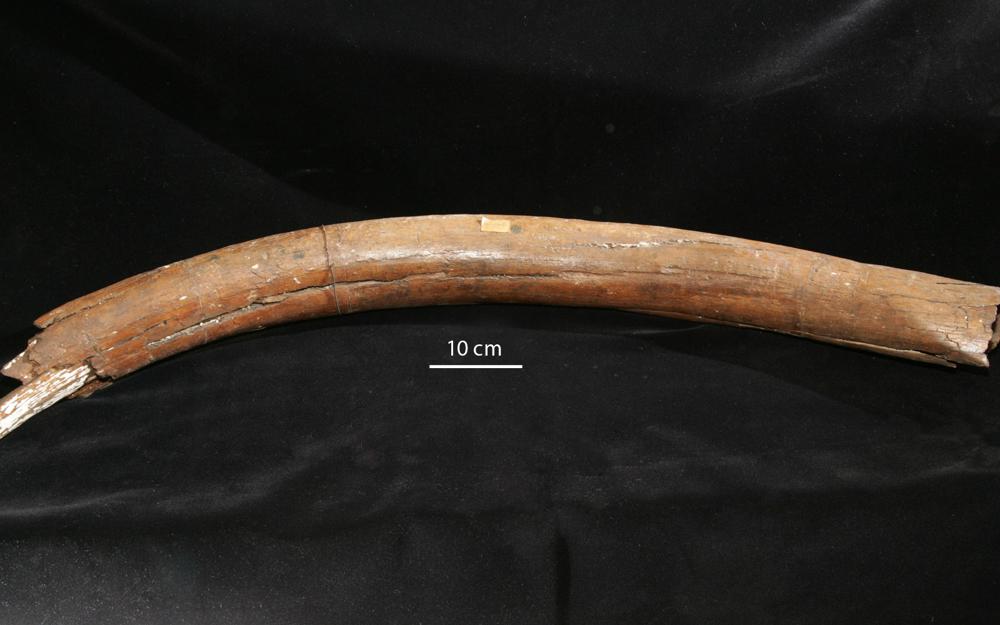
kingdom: Animalia
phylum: Chordata
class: Mammalia
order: Proboscidea
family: Elephantidae
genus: Mammuthus
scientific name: Mammuthus primigenius
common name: Wooly mammoth
